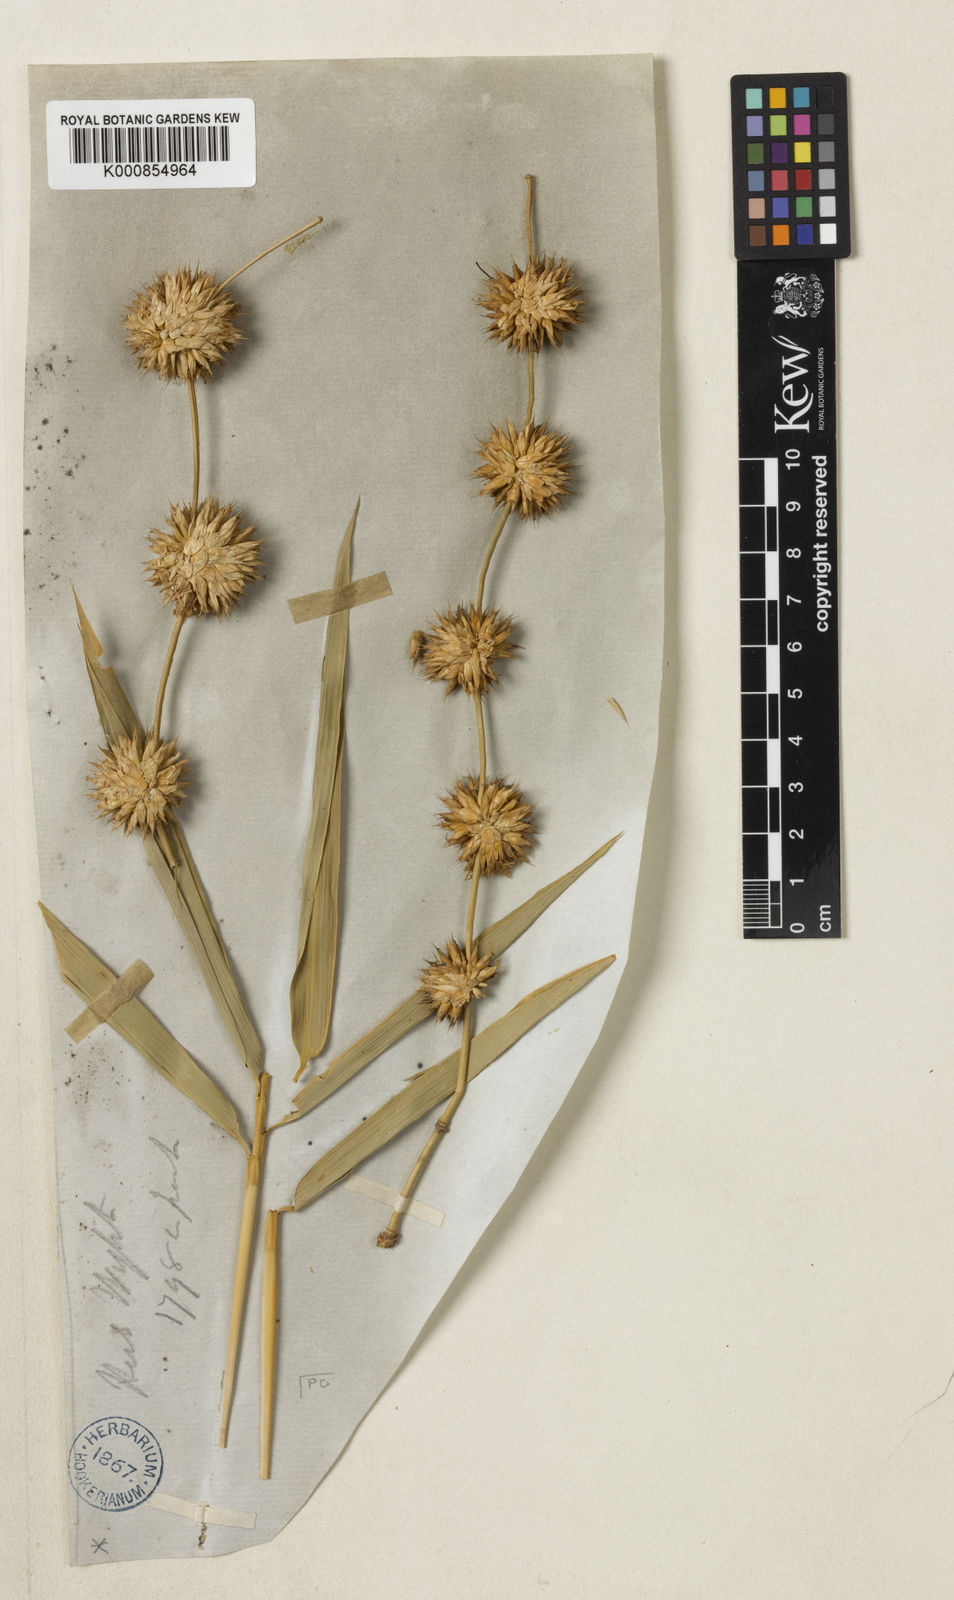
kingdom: Plantae
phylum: Tracheophyta
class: Liliopsida
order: Poales
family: Poaceae
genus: Dendrocalamus
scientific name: Dendrocalamus strictus
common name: Male bamboo
